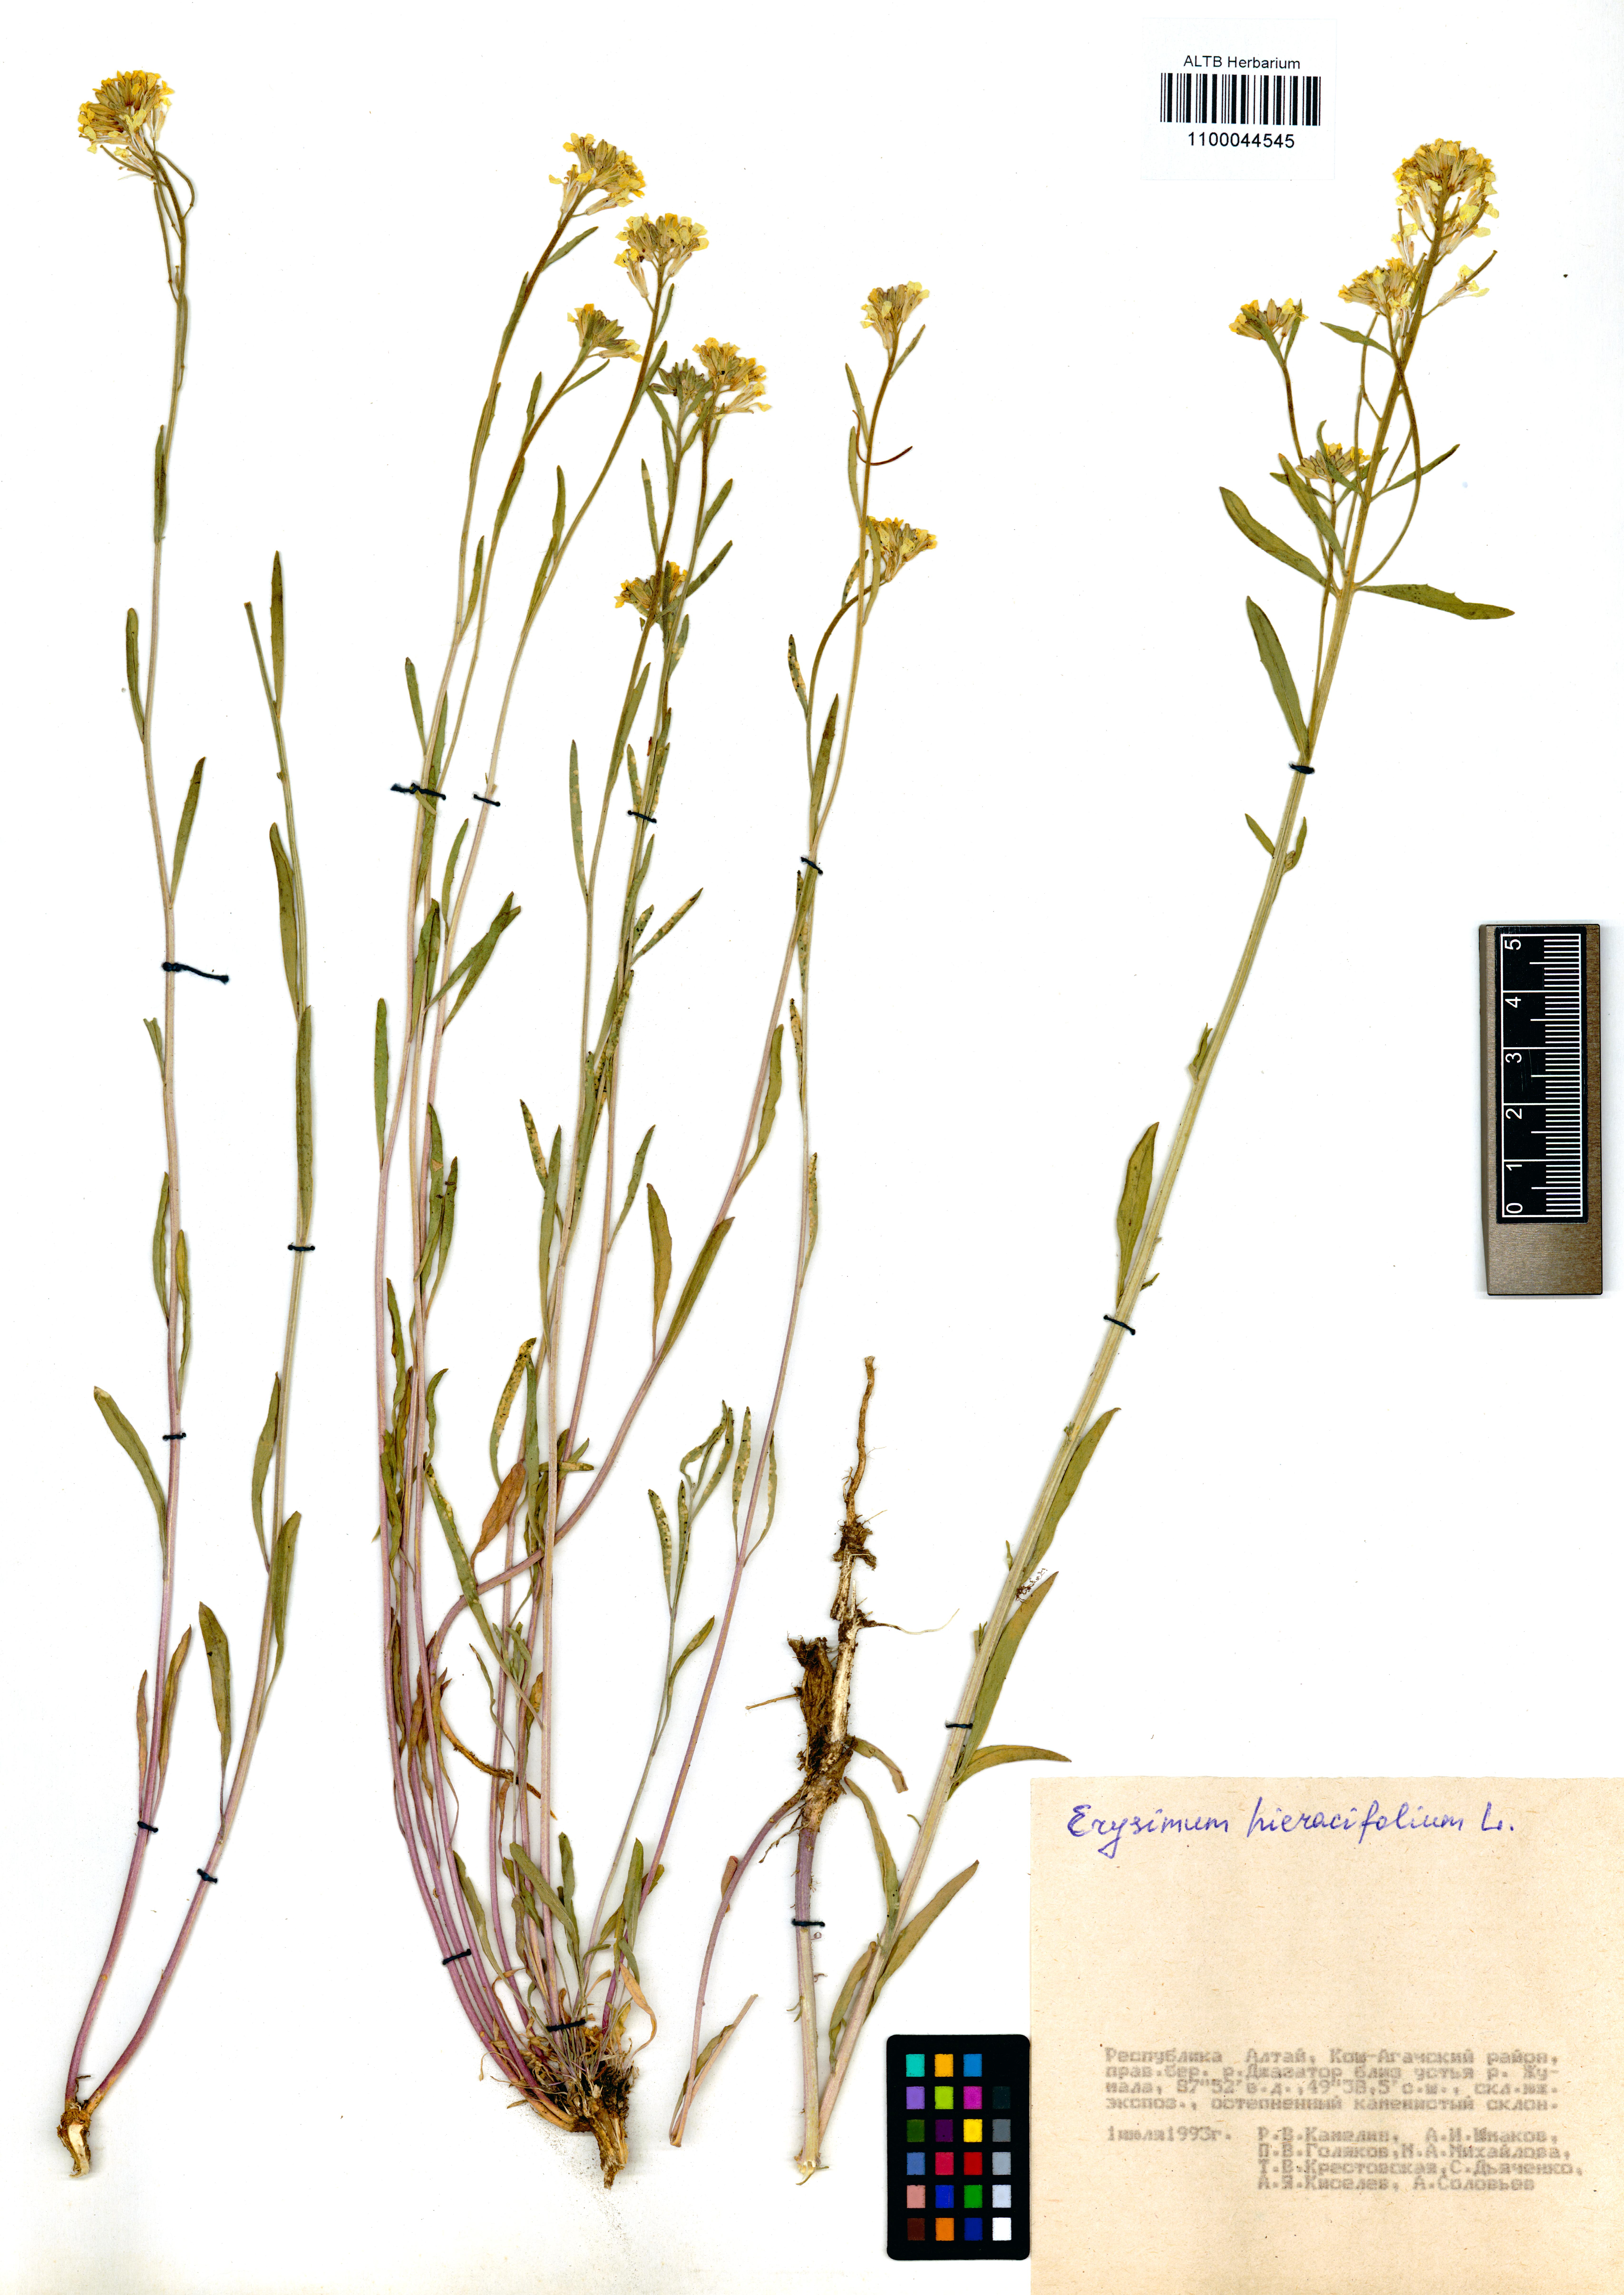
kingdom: Plantae
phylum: Tracheophyta
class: Magnoliopsida
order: Brassicales
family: Brassicaceae
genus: Erysimum
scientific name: Erysimum hieraciifolium
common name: European wallflower
